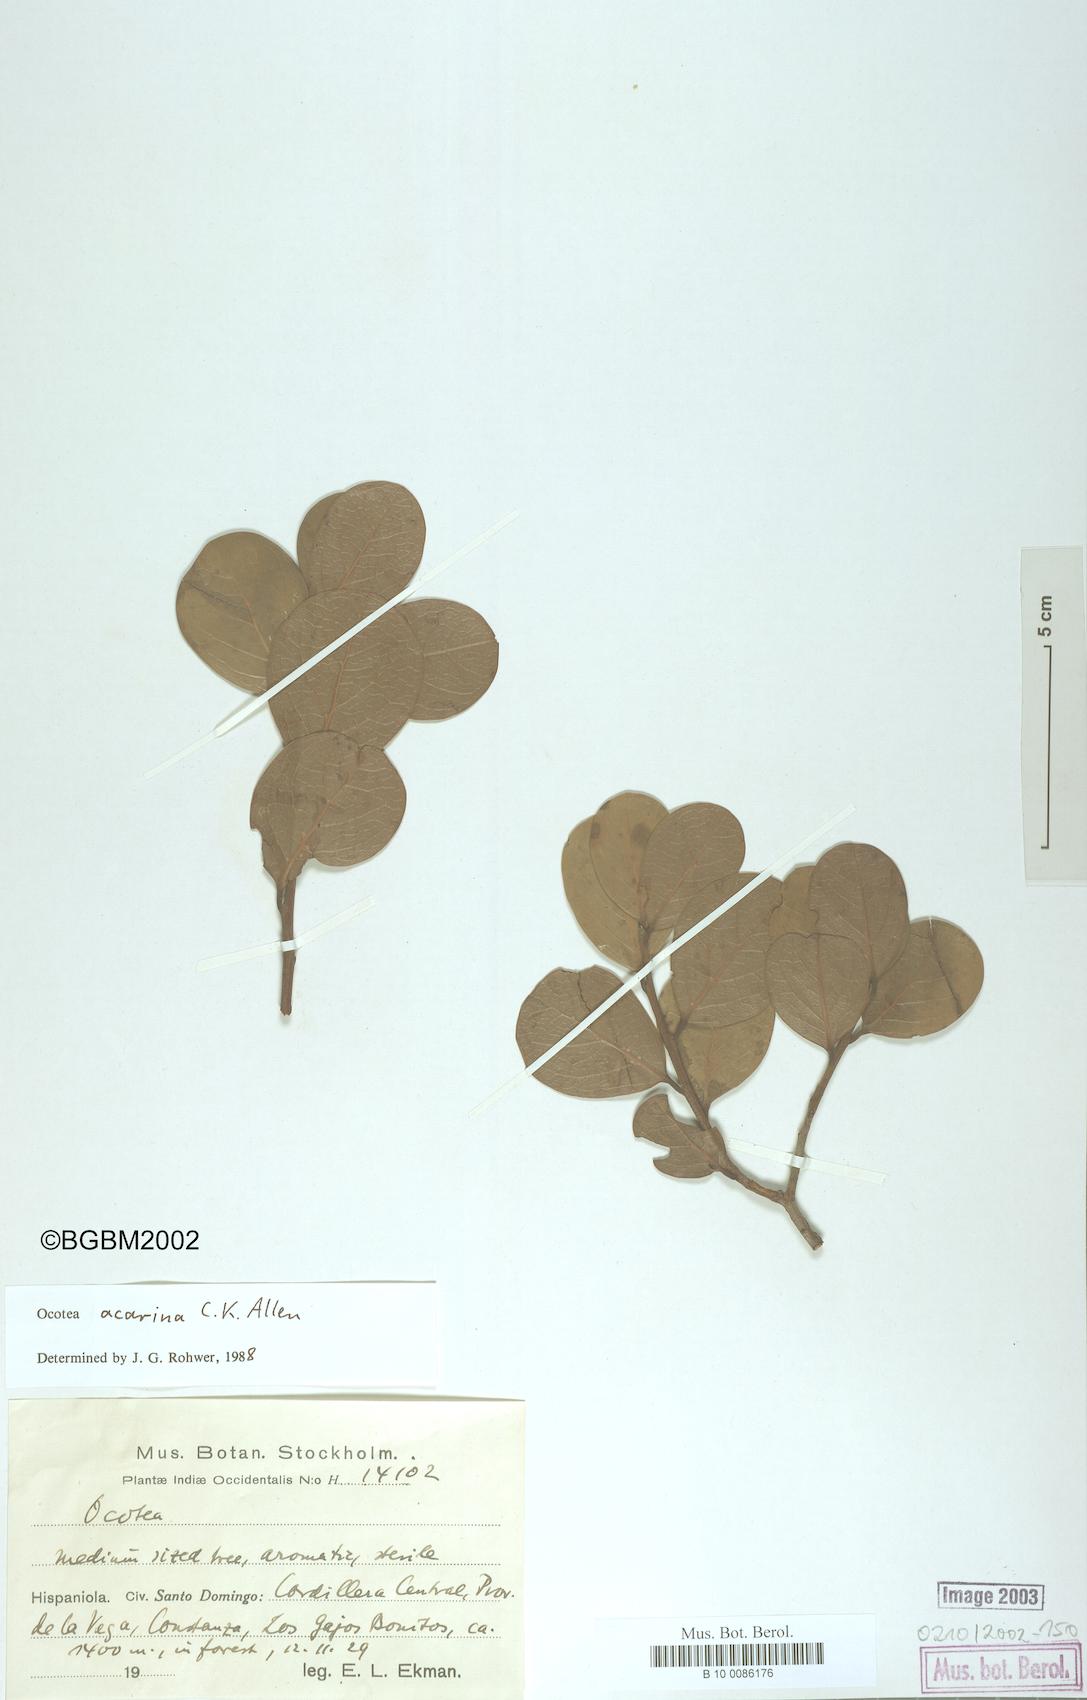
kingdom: Plantae
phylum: Tracheophyta
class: Magnoliopsida
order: Laurales
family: Lauraceae
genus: Ocotea
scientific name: Ocotea acarina
